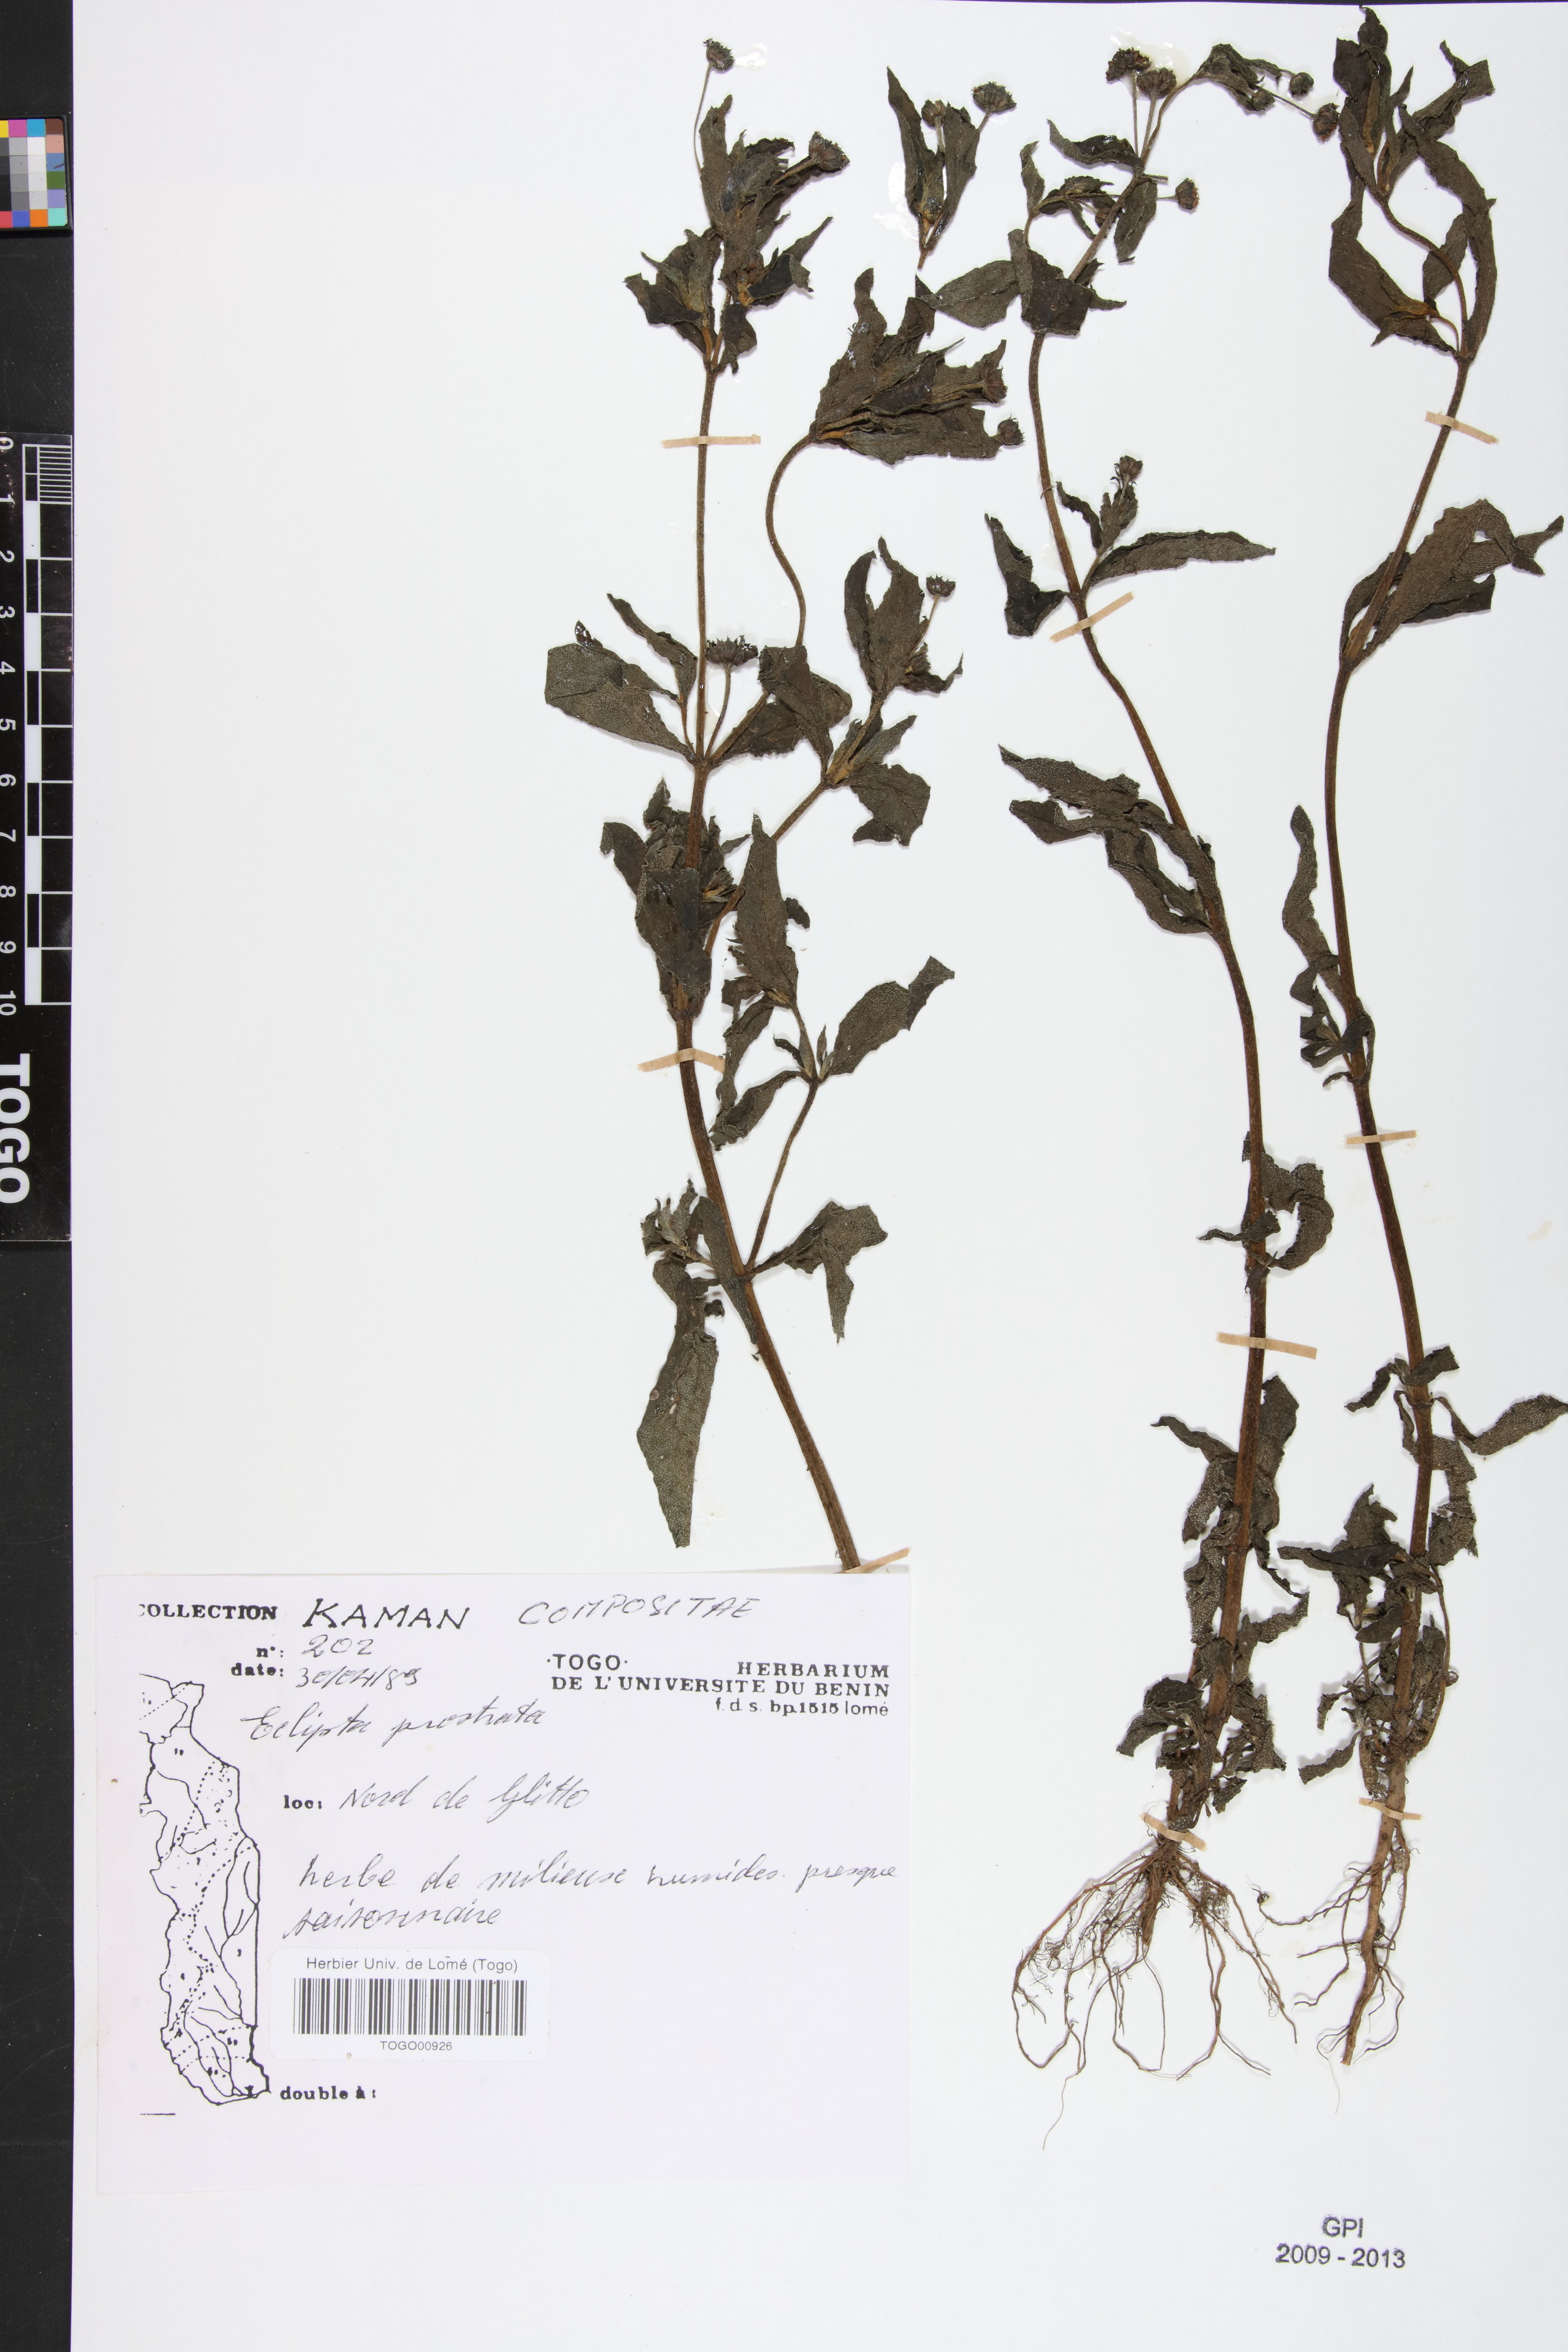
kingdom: Plantae
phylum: Tracheophyta
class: Magnoliopsida
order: Asterales
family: Asteraceae
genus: Eclipta
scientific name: Eclipta prostrata
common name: False daisy
